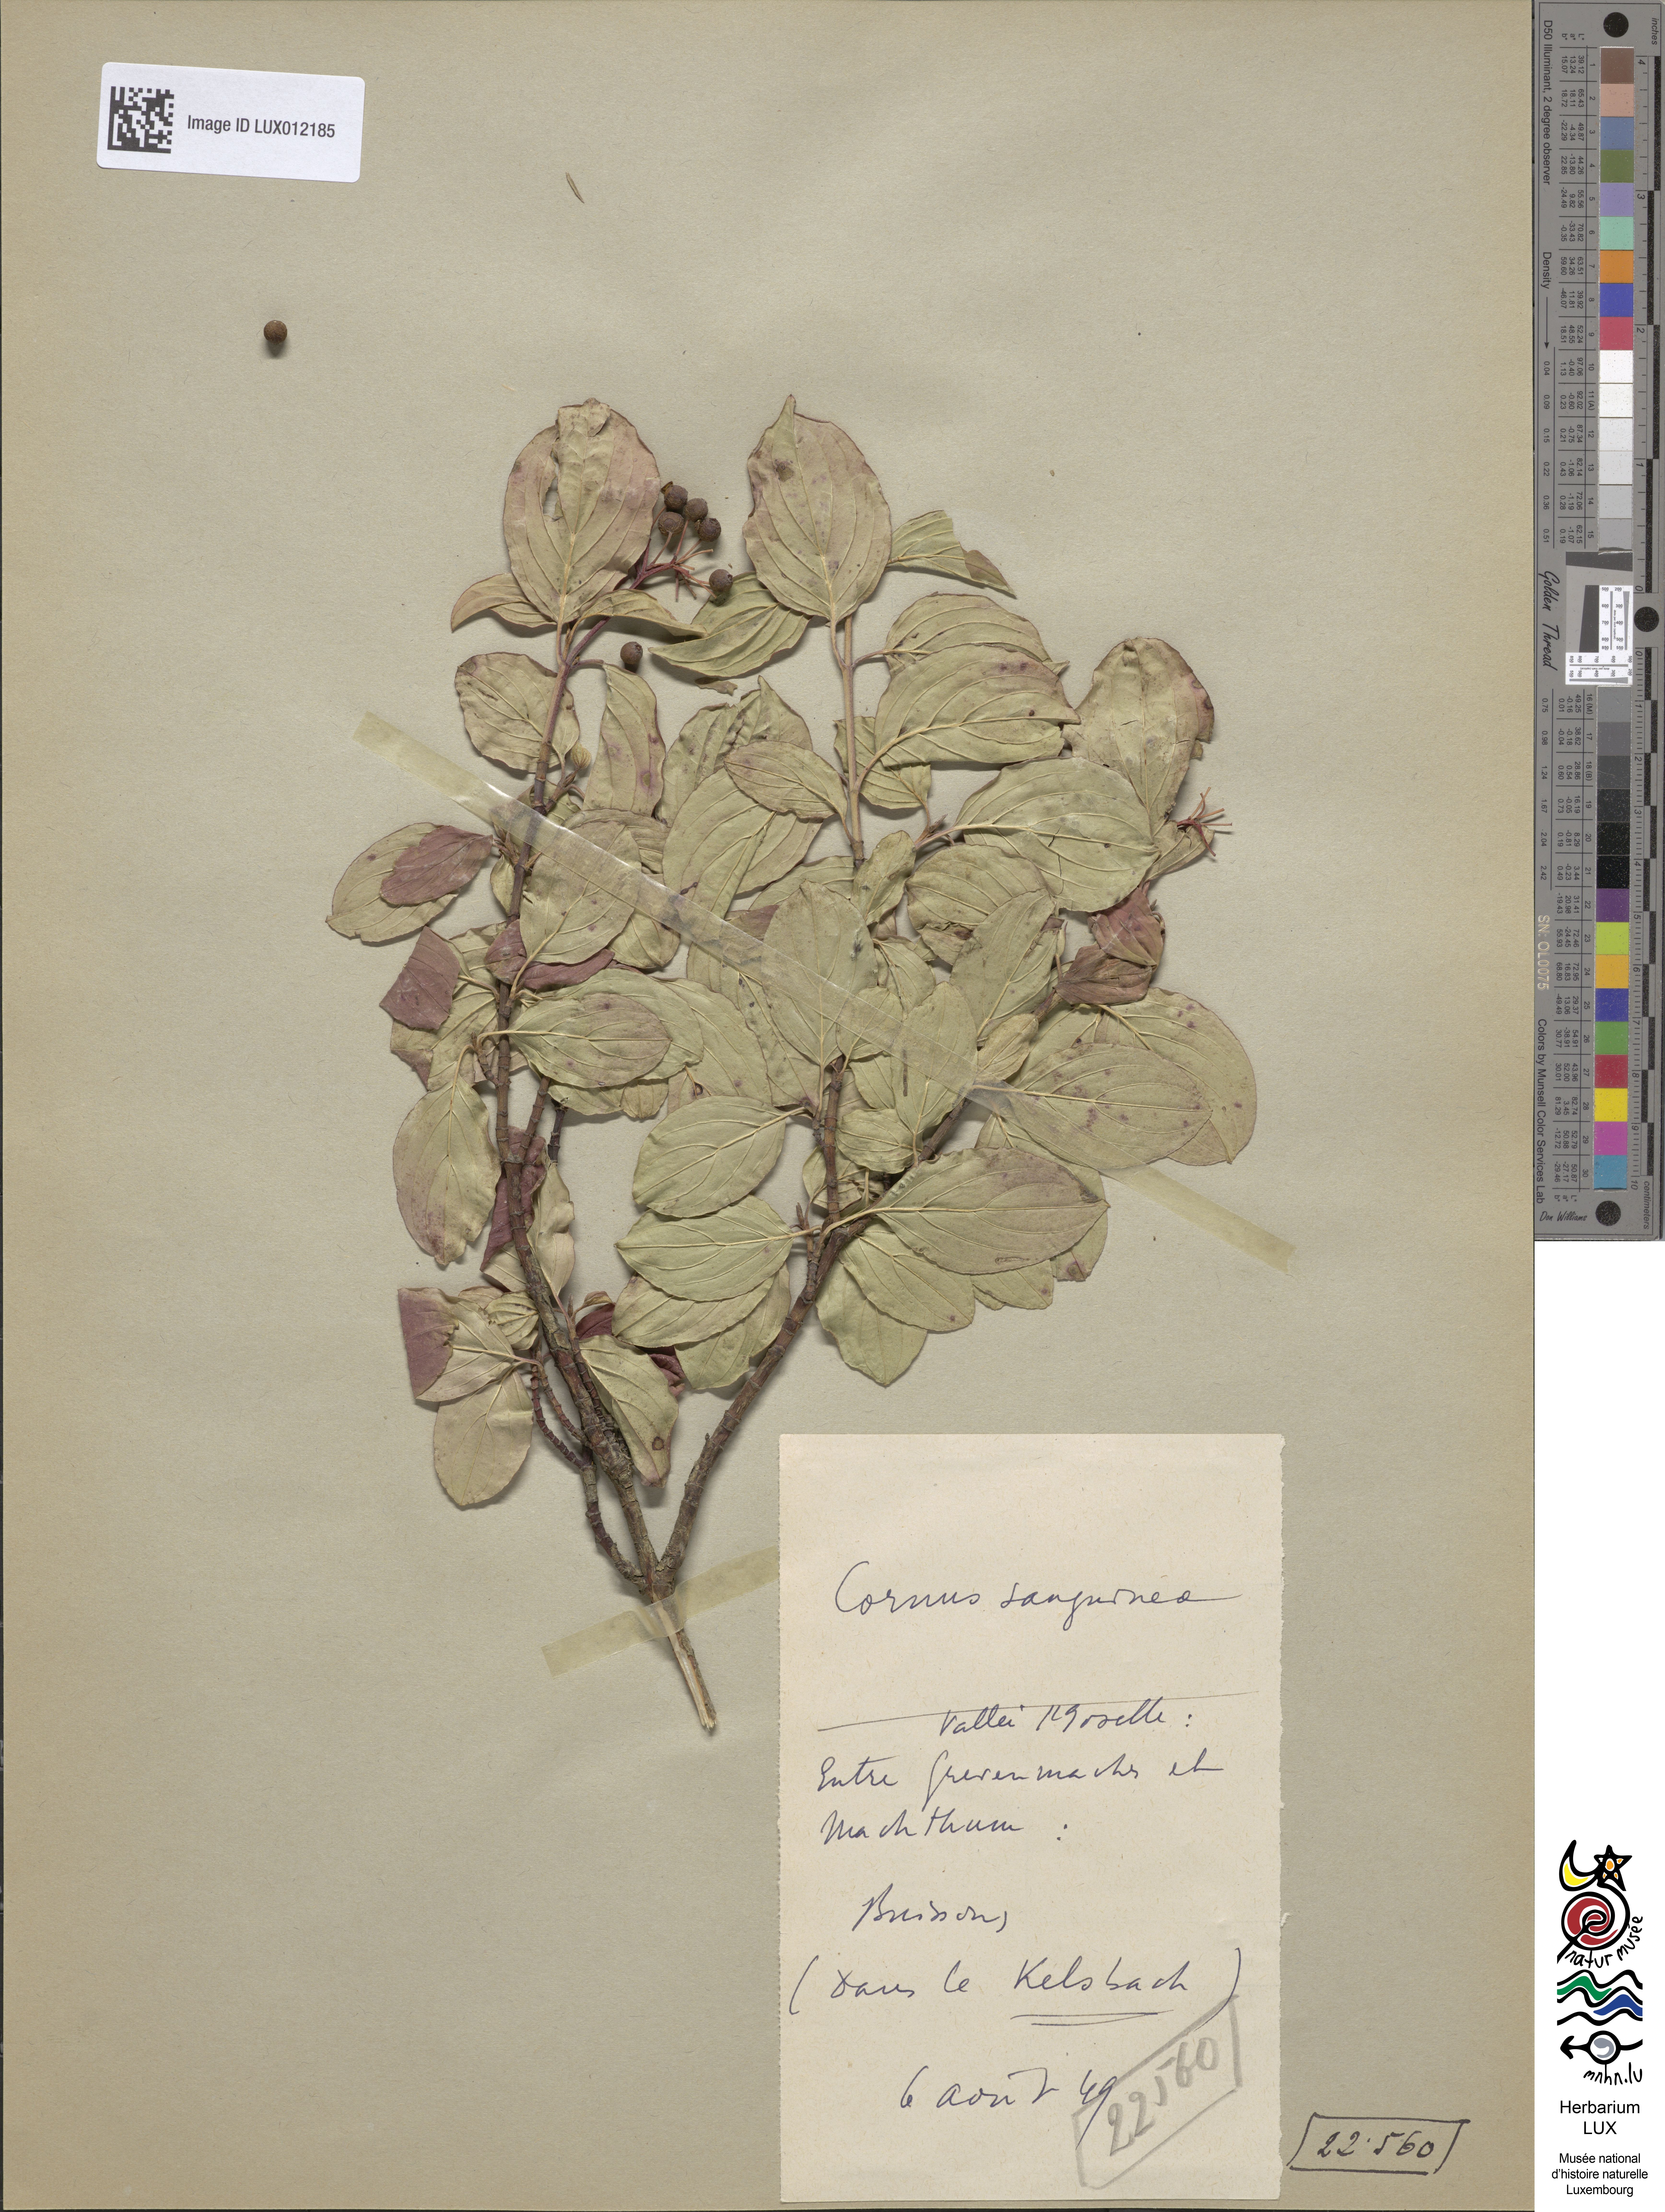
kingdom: Plantae
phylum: Tracheophyta
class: Magnoliopsida
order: Cornales
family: Cornaceae
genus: Cornus
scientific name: Cornus sanguinea
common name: Dogwood
